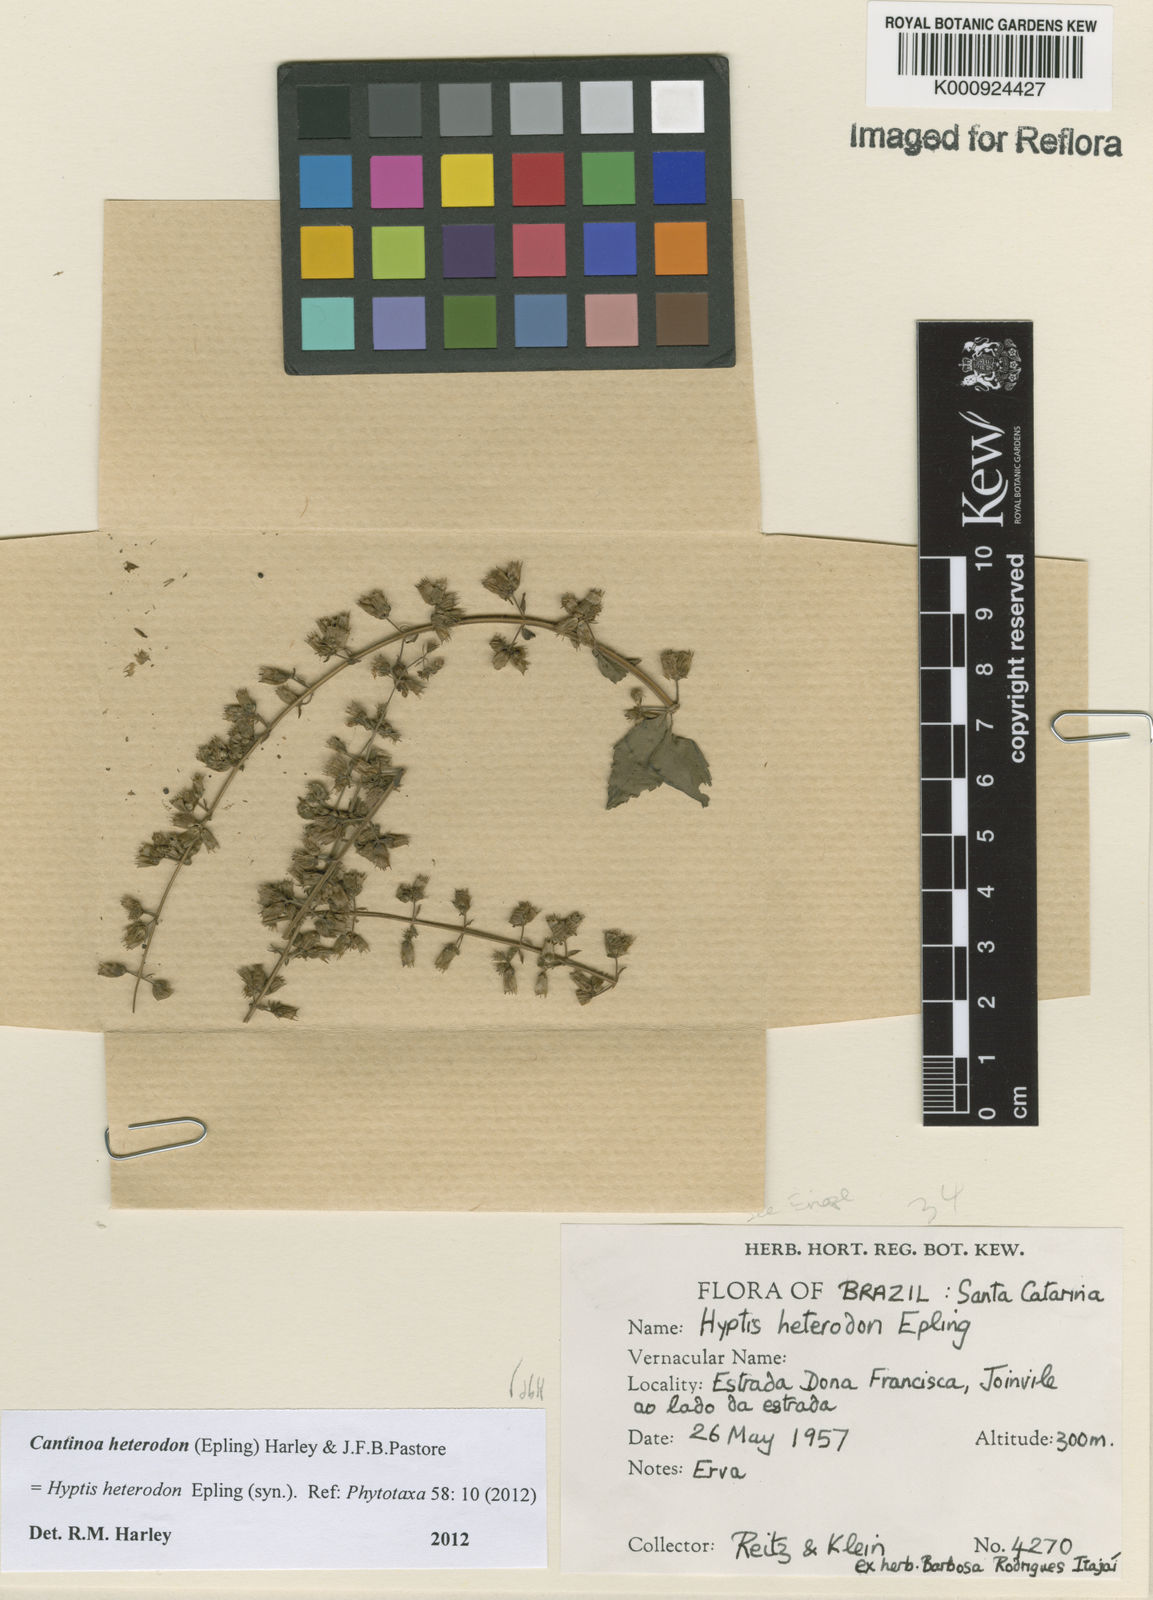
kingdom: Plantae
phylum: Tracheophyta
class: Magnoliopsida
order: Lamiales
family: Lamiaceae
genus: Cantinoa
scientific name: Cantinoa heterodon
